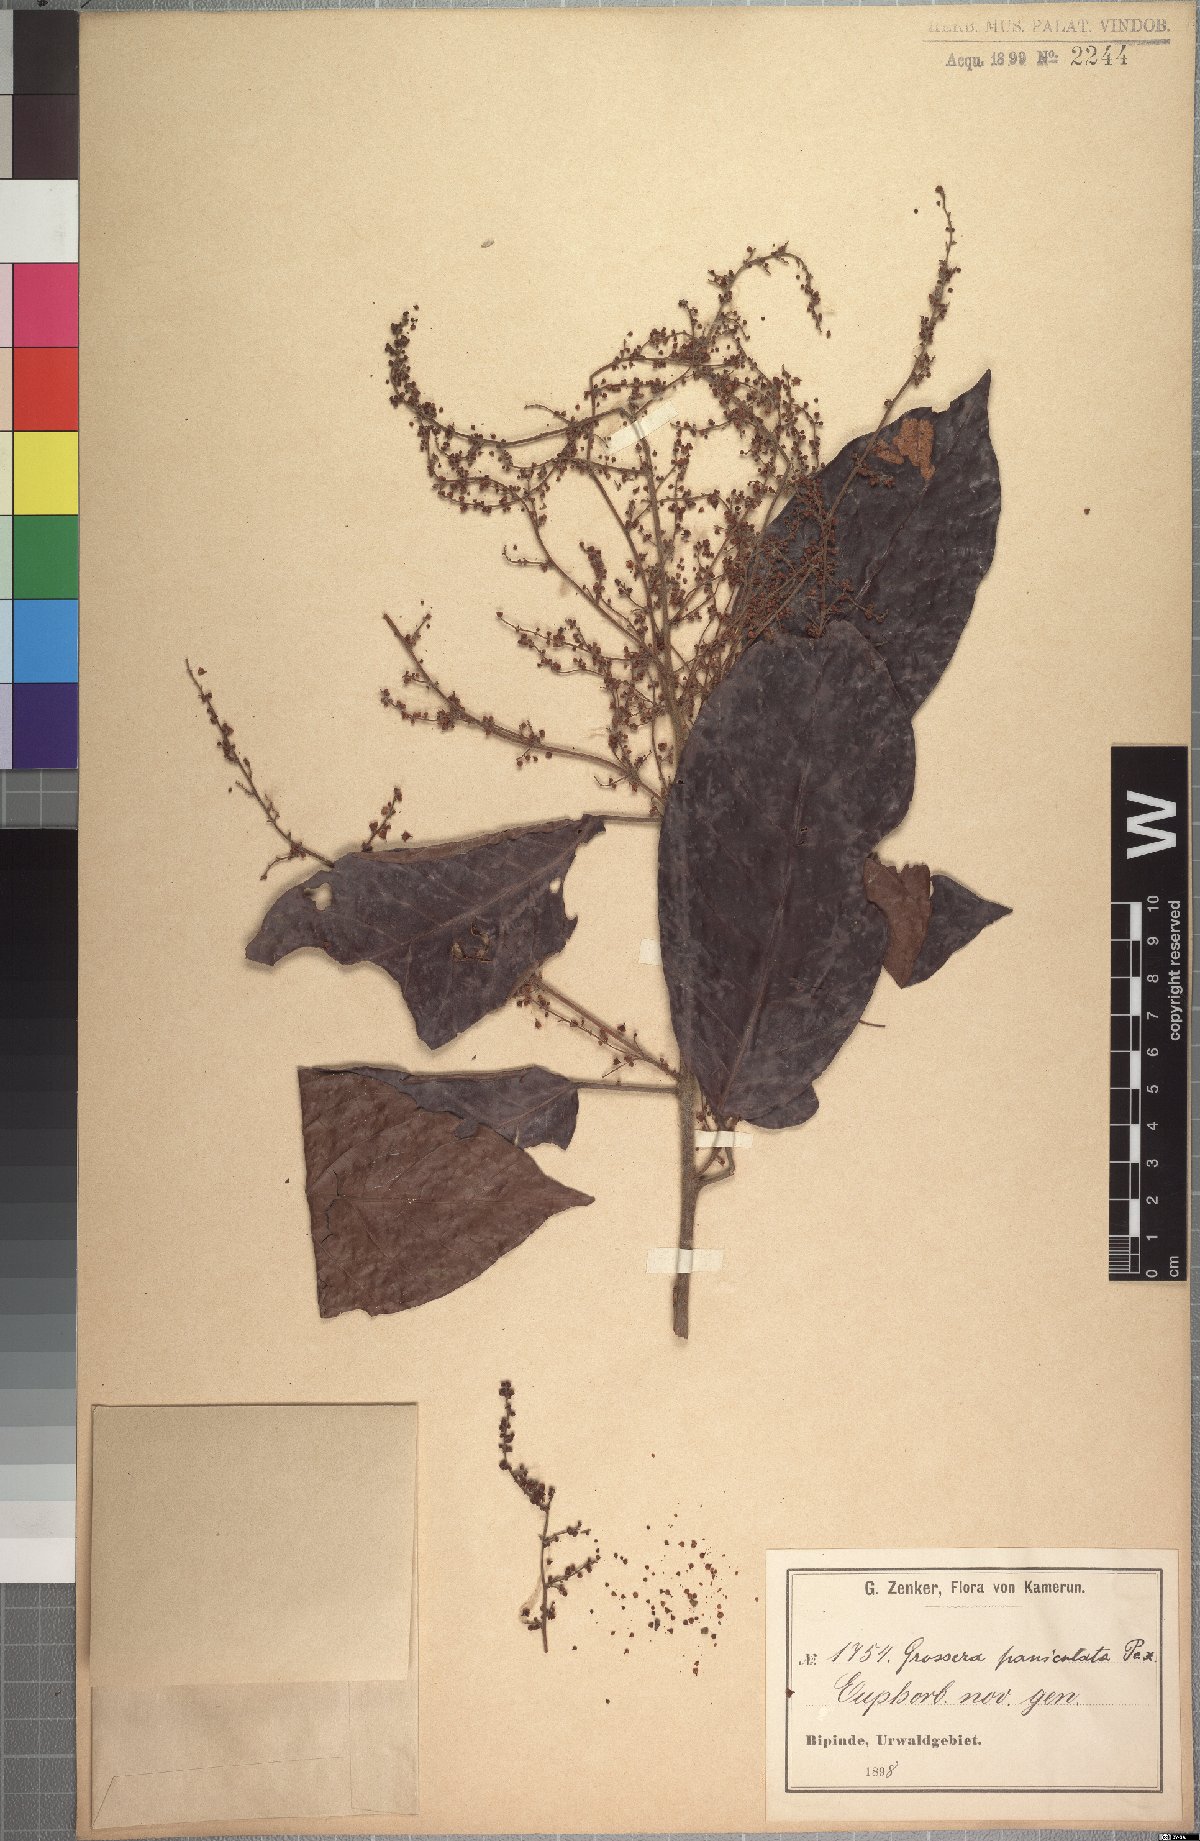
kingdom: Plantae
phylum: Tracheophyta
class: Magnoliopsida
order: Malpighiales
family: Euphorbiaceae
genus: Grossera
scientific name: Grossera paniculata
